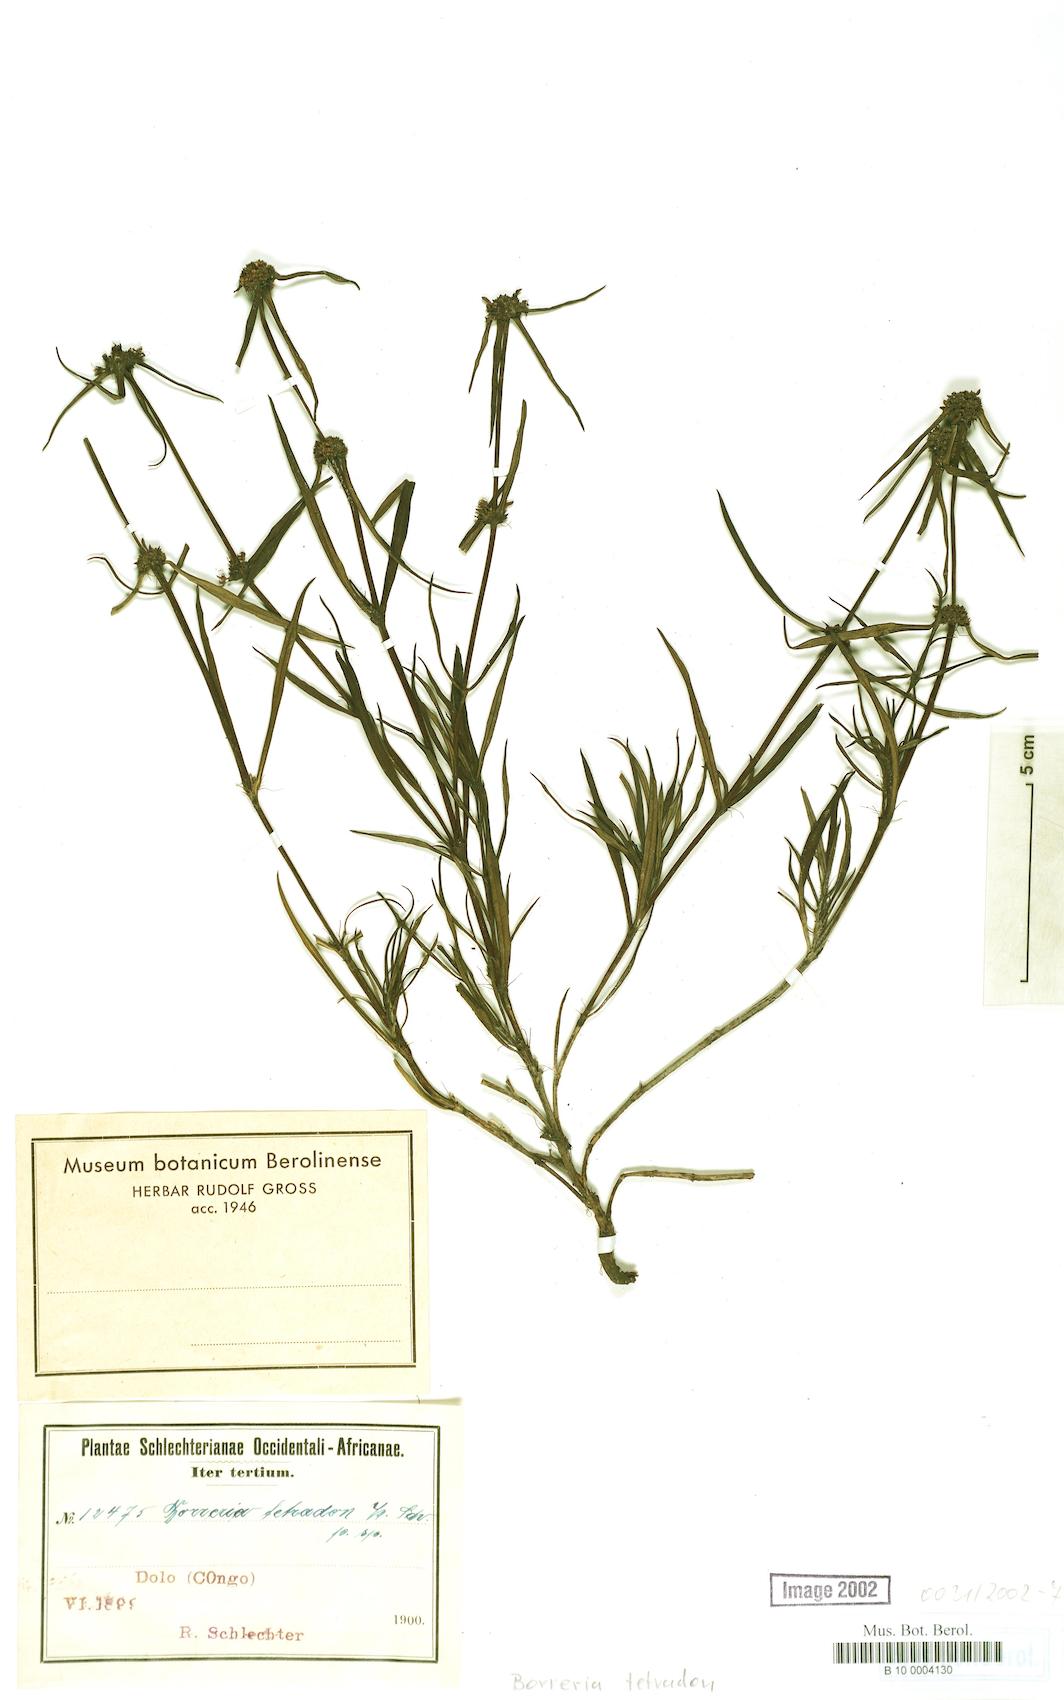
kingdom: Plantae
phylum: Tracheophyta
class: Magnoliopsida
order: Gentianales
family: Rubiaceae
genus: Spermacoce
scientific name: Spermacoce
